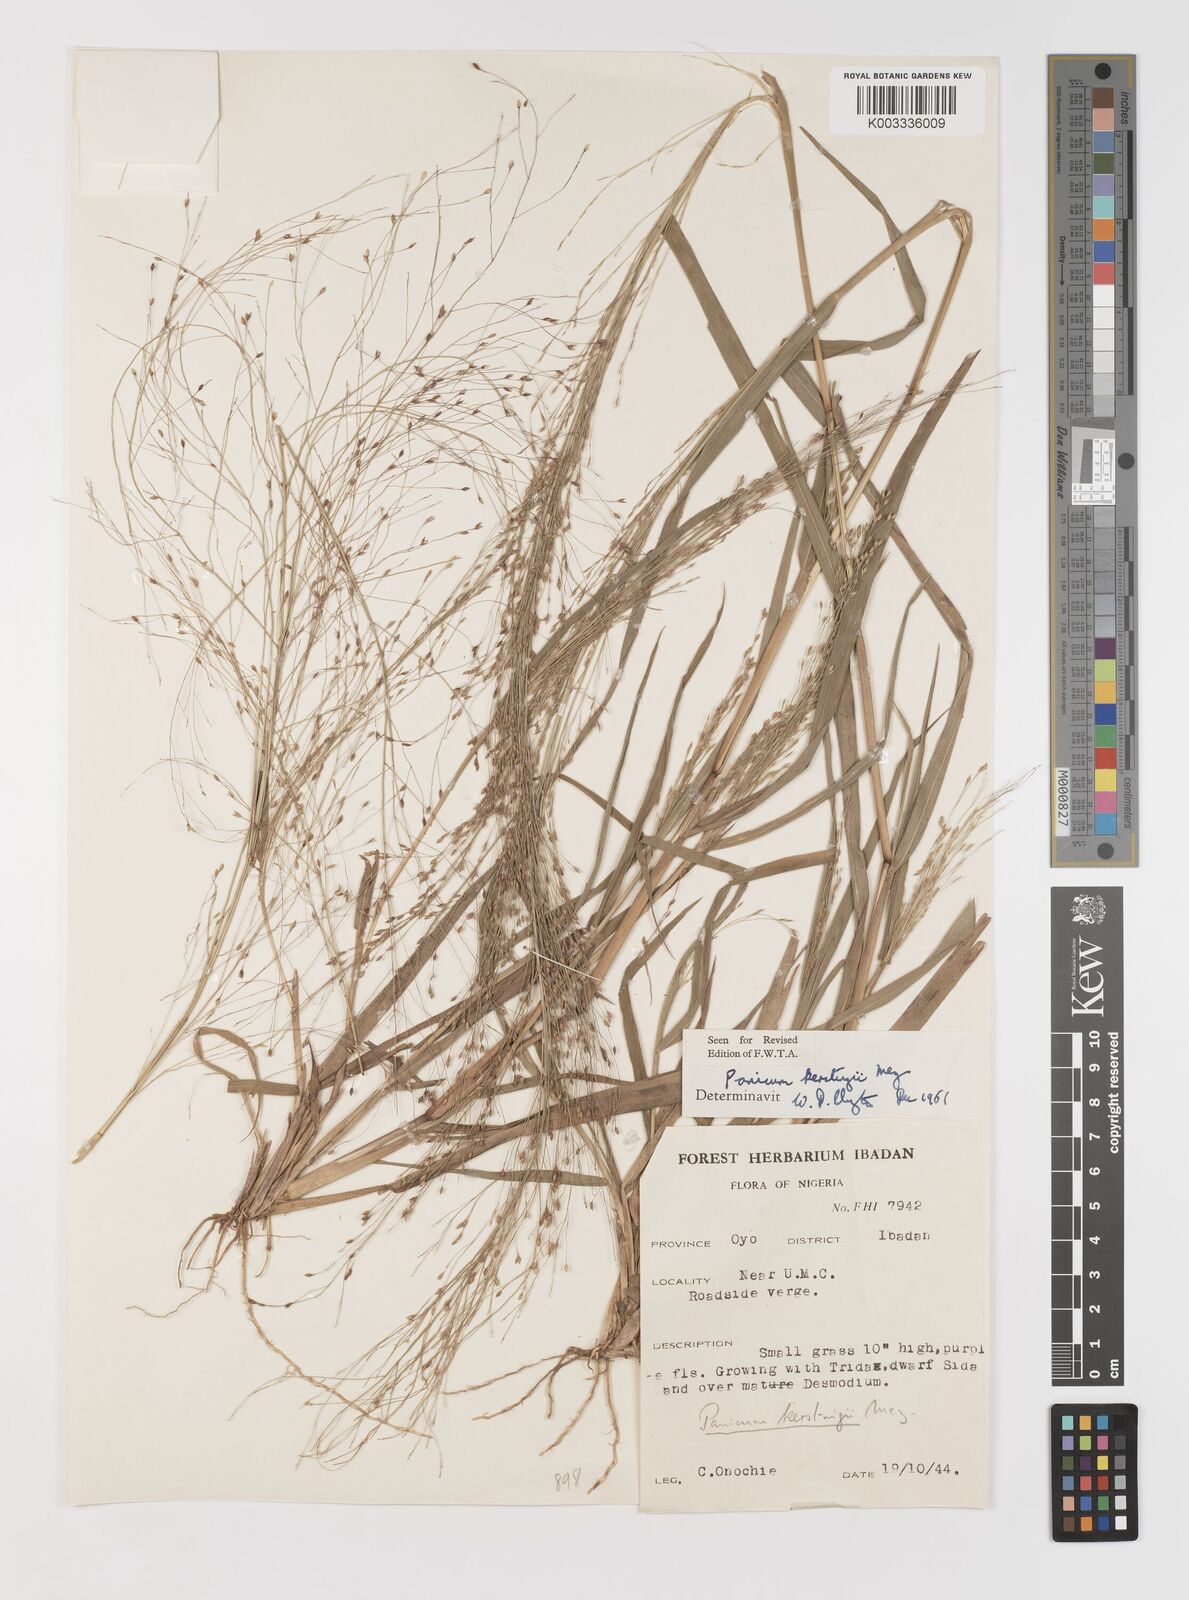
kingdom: Plantae
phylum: Tracheophyta
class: Liliopsida
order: Poales
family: Poaceae
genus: Panicum
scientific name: Panicum pansum
